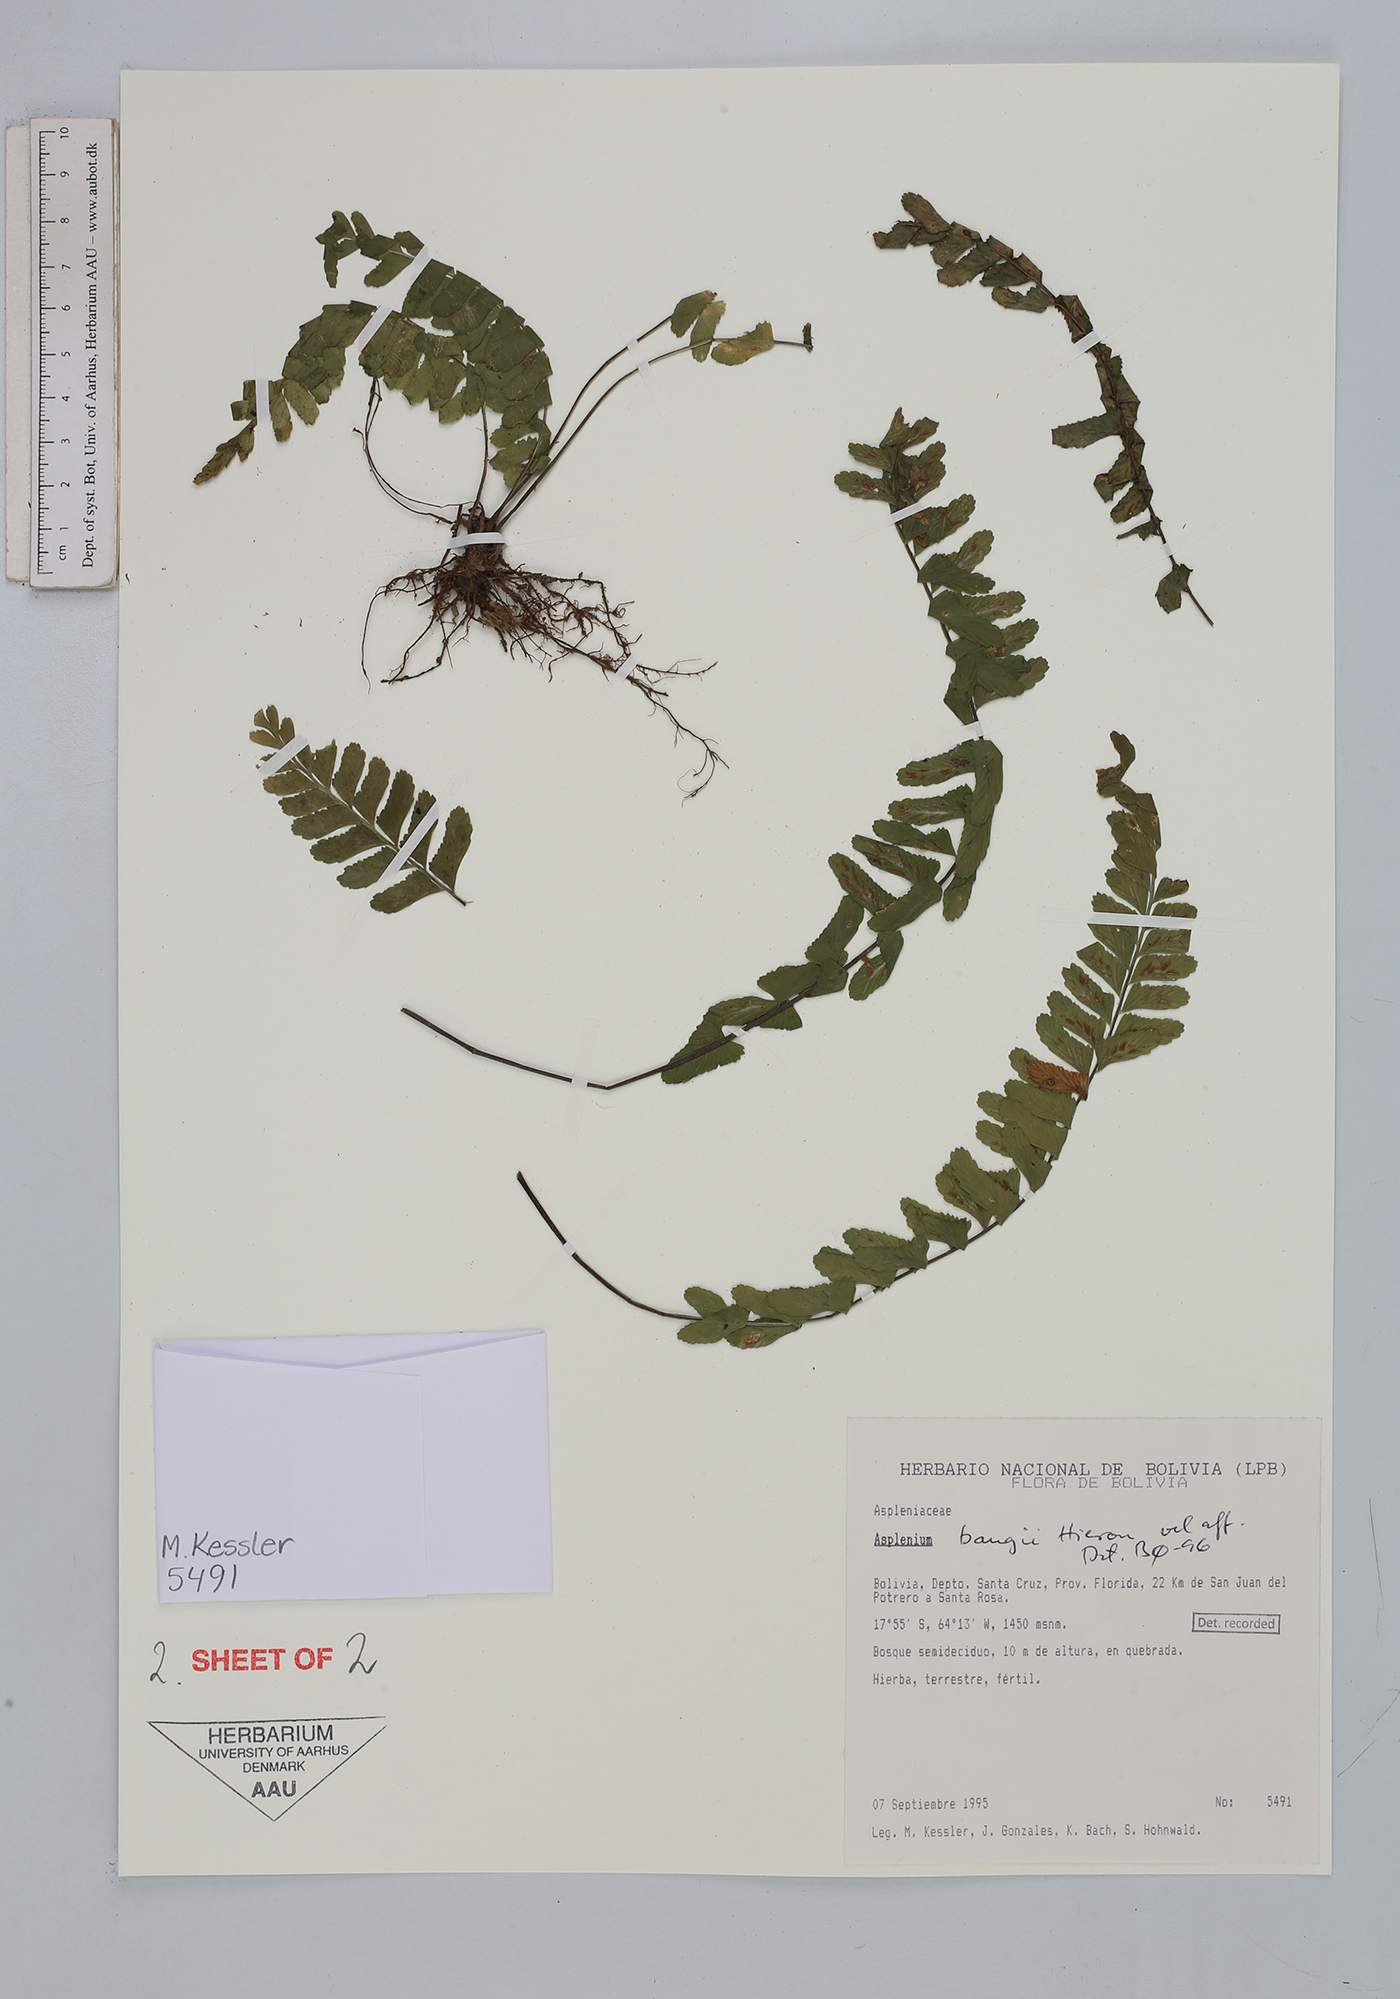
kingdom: Plantae
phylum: Tracheophyta
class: Polypodiopsida
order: Polypodiales
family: Aspleniaceae
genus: Asplenium
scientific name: Asplenium bangii
